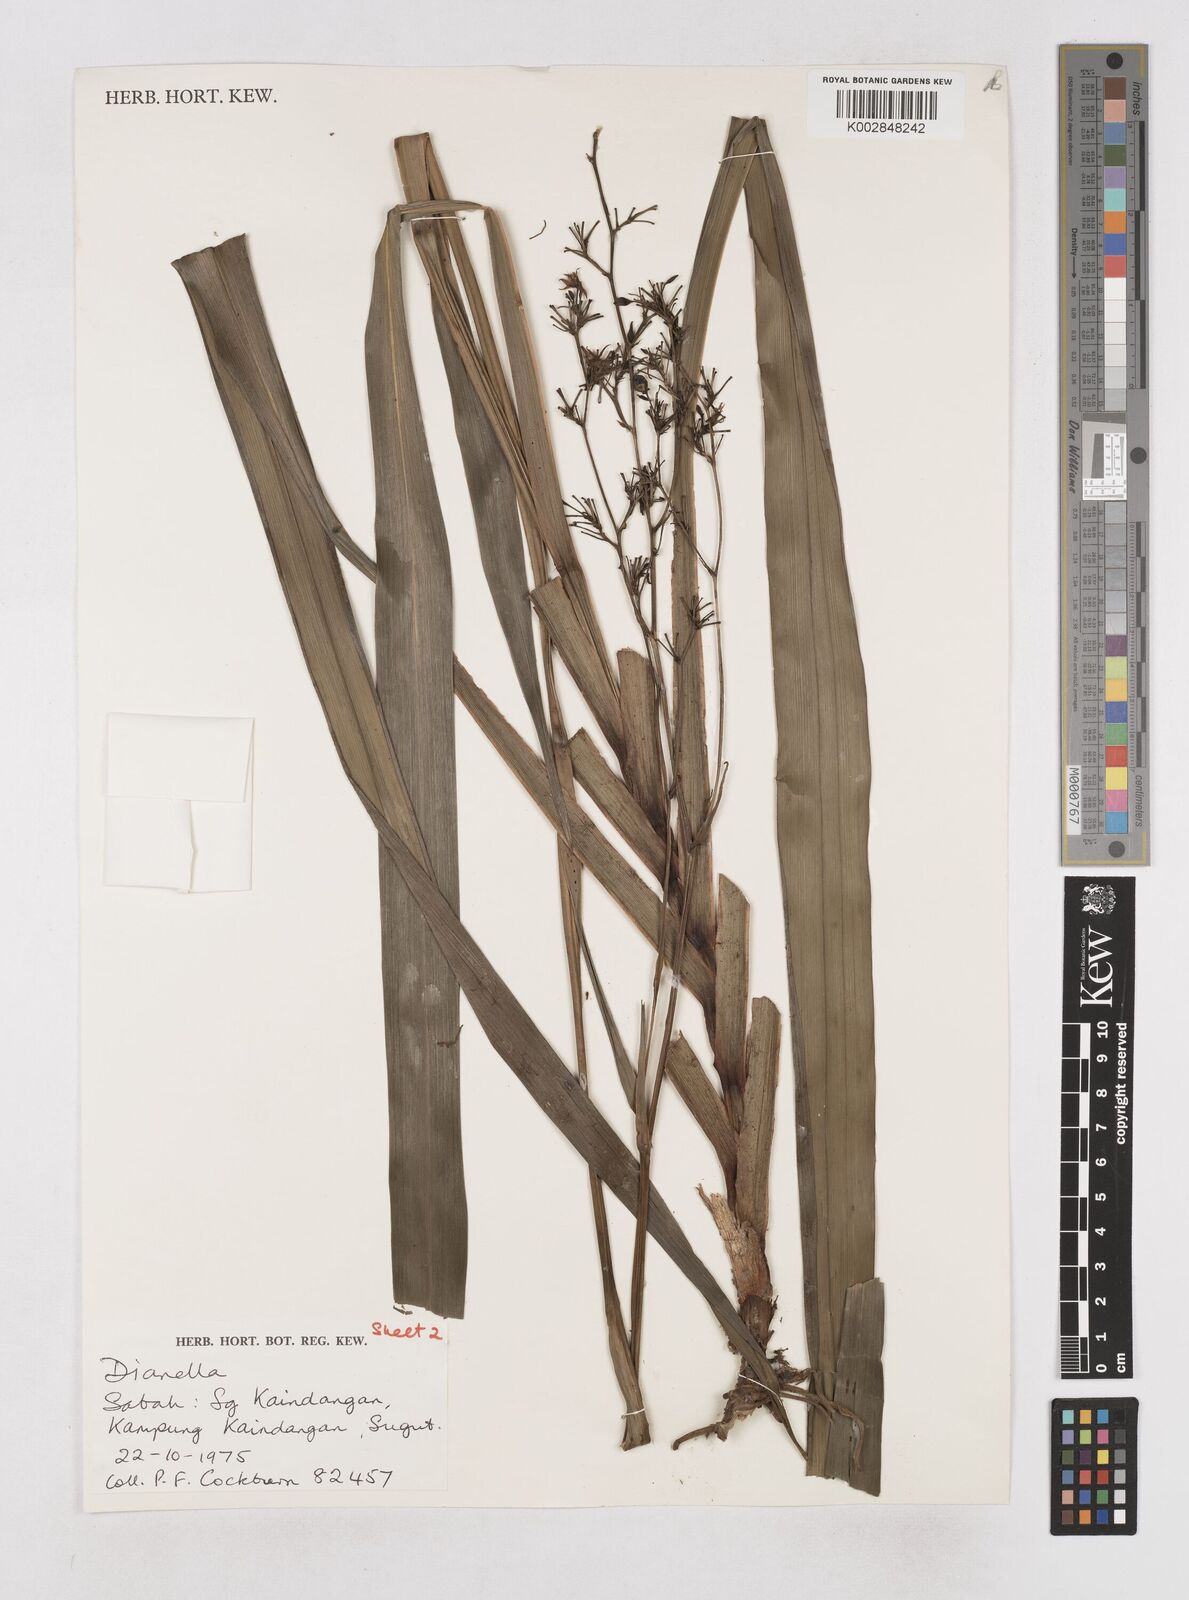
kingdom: Plantae
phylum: Tracheophyta
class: Liliopsida
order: Asparagales
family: Asphodelaceae
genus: Dianella
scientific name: Dianella
